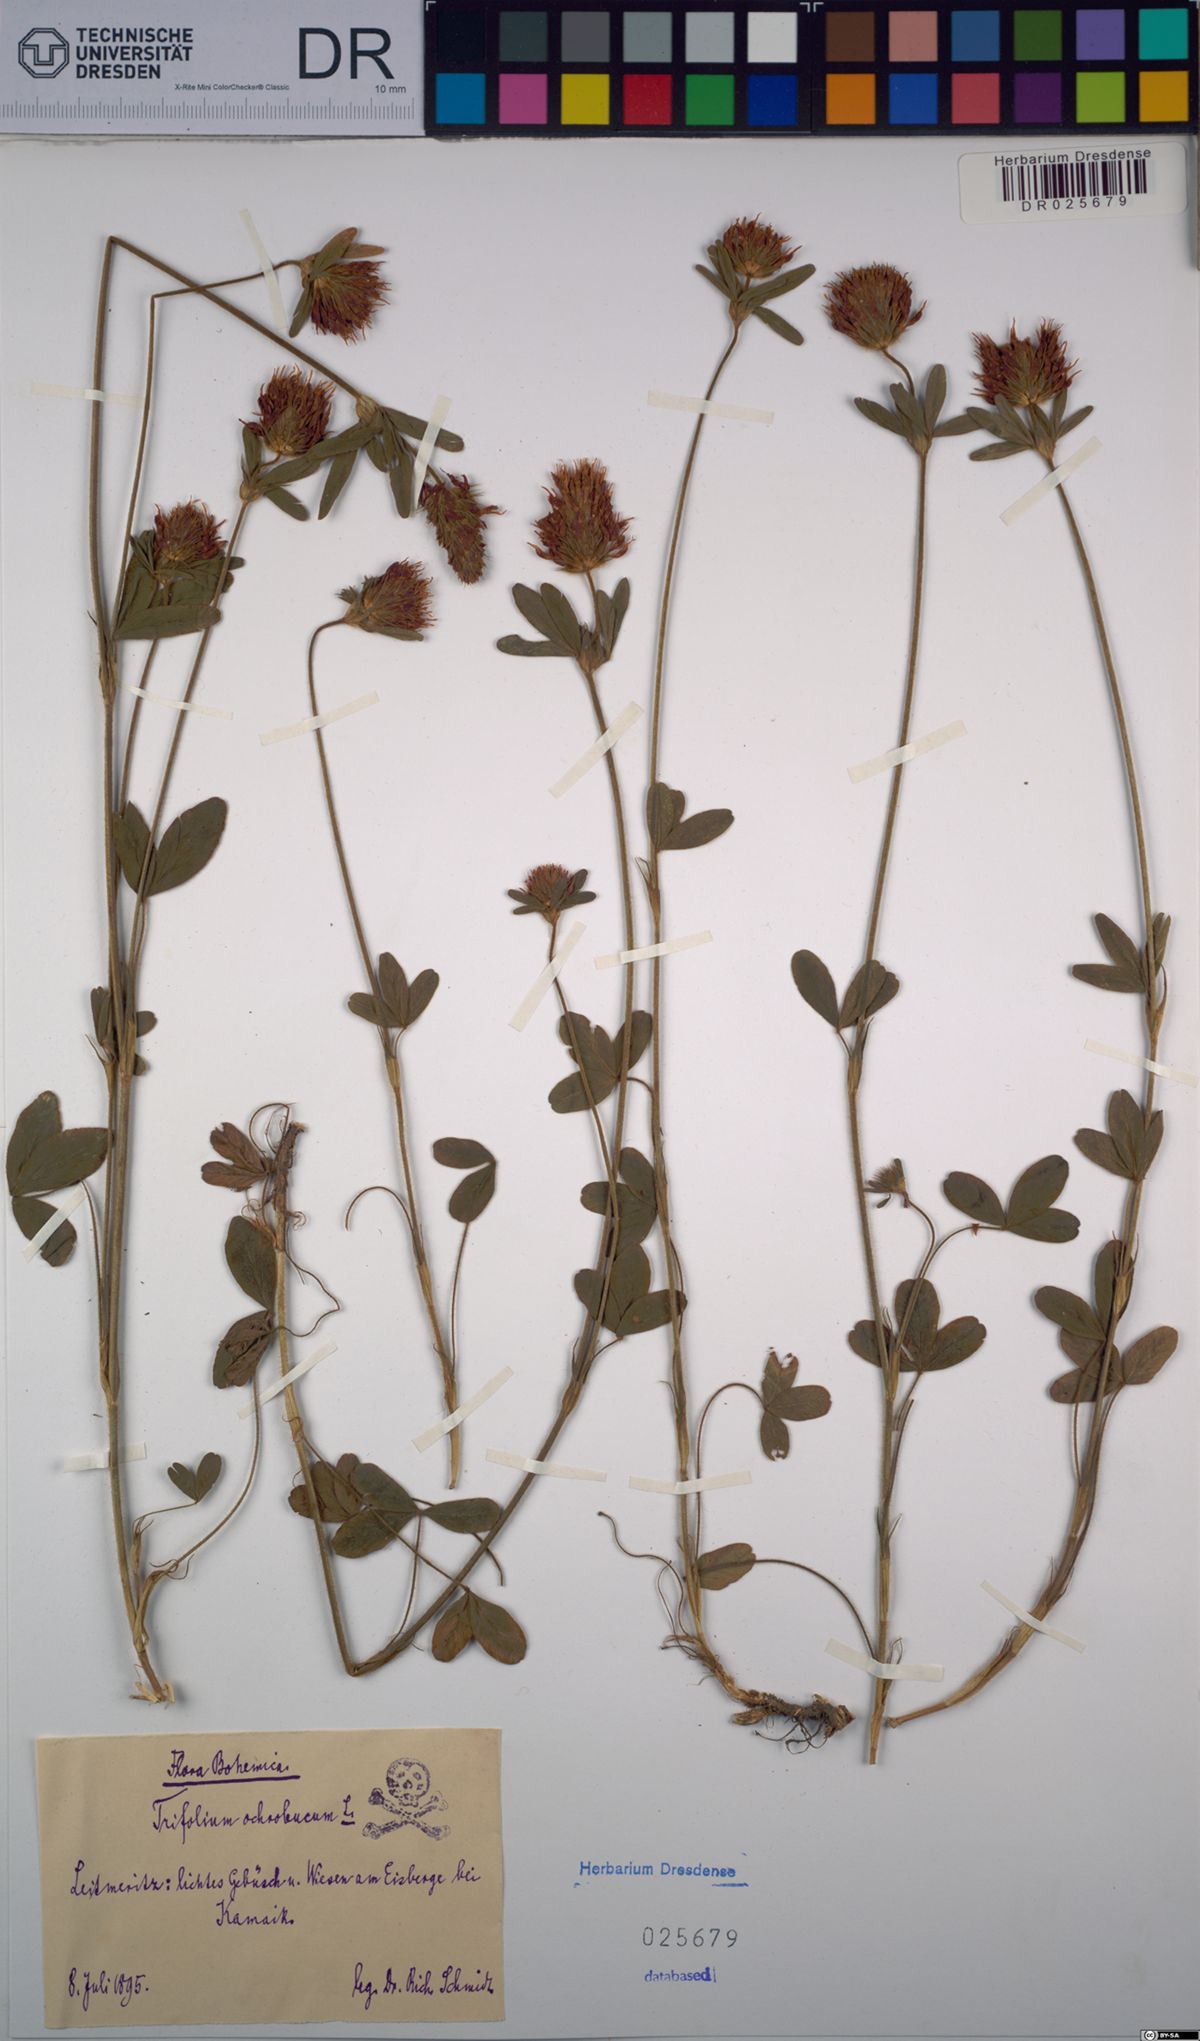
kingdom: Plantae
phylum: Tracheophyta
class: Magnoliopsida
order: Fabales
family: Fabaceae
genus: Trifolium
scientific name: Trifolium ochroleucon
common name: Sulphur clover
